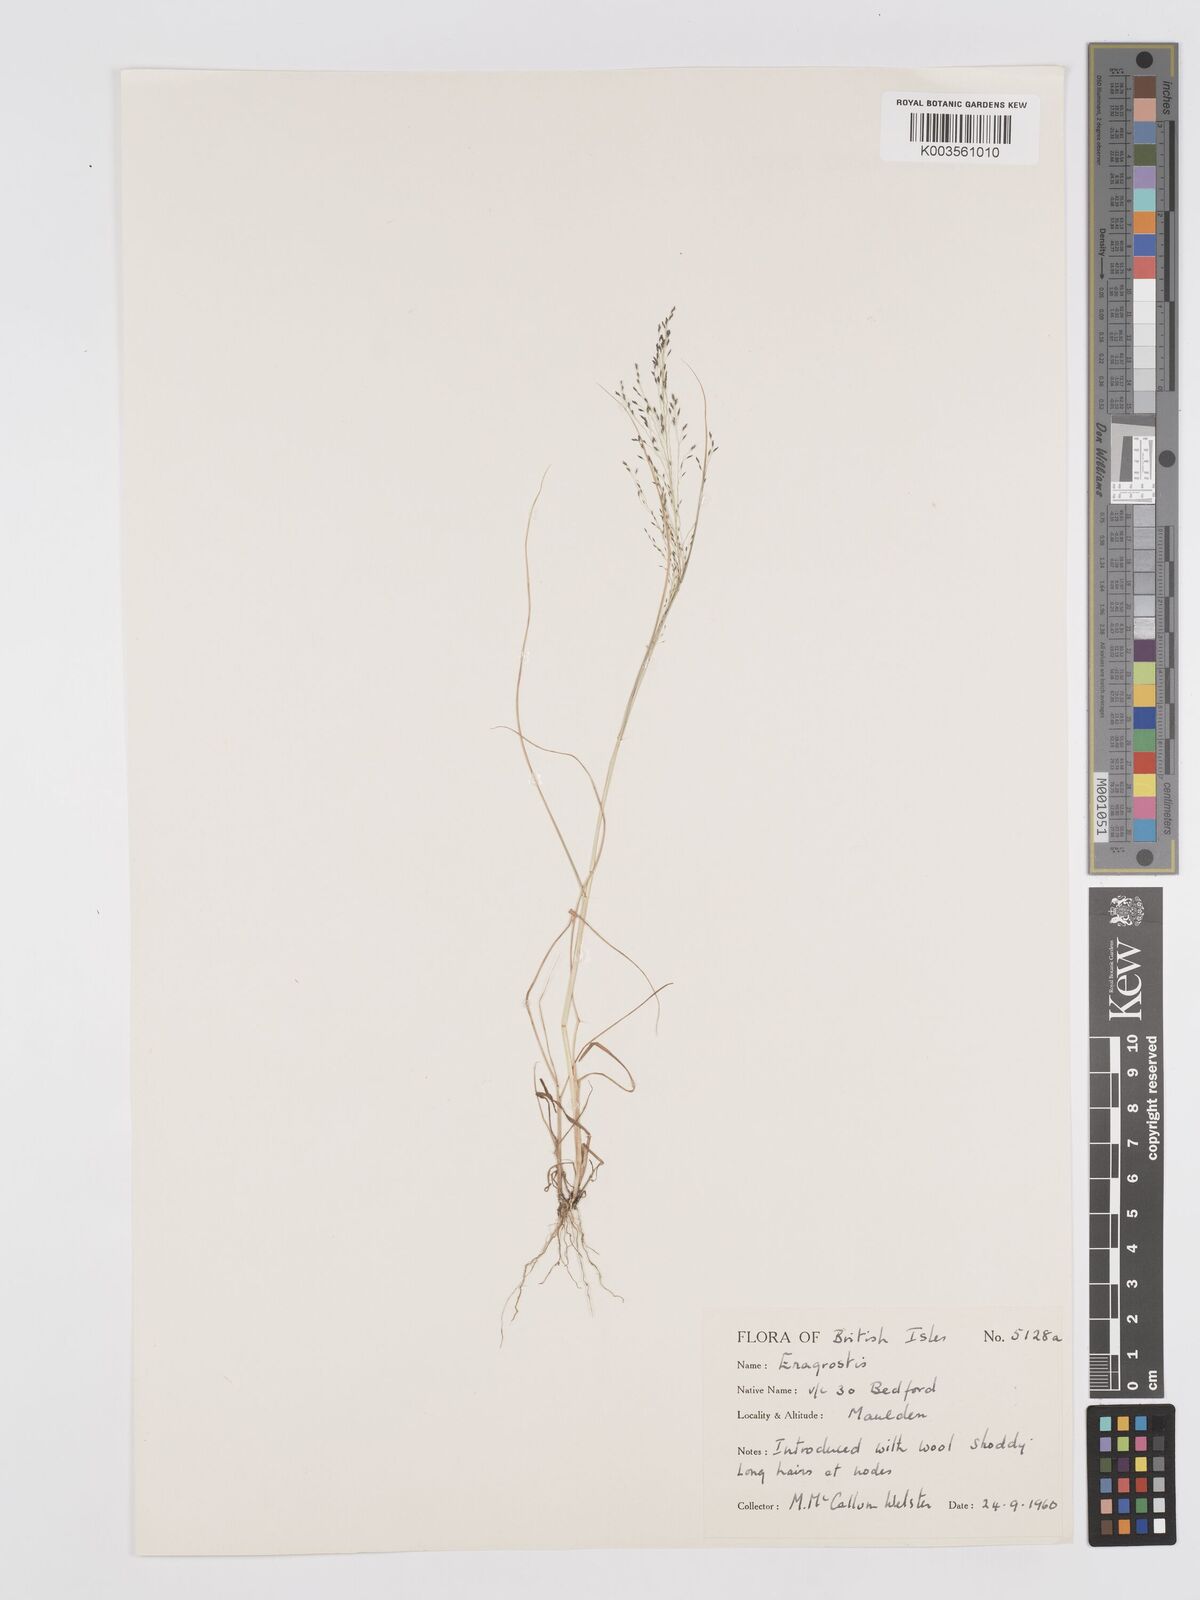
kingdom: Plantae
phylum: Tracheophyta
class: Liliopsida
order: Poales
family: Poaceae
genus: Eragrostis
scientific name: Eragrostis
